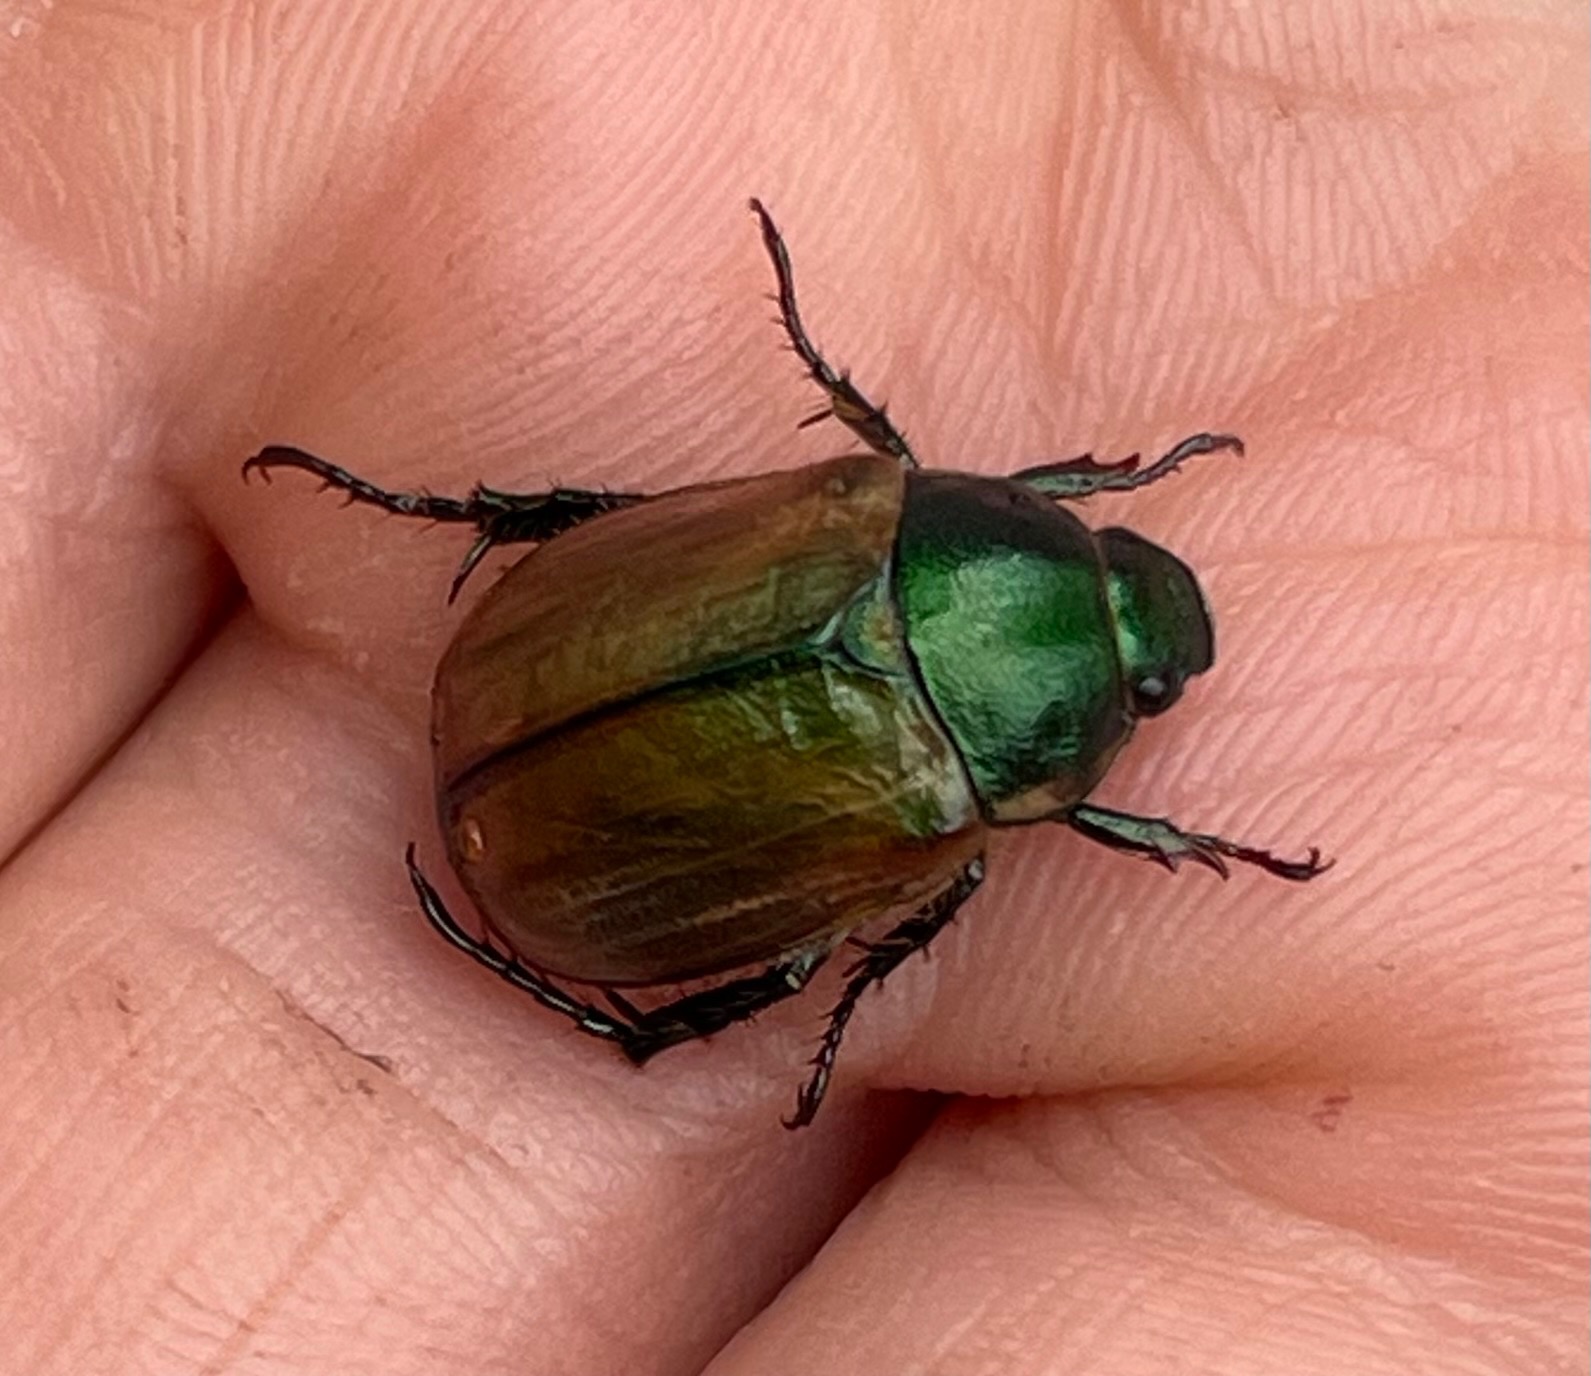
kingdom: Animalia
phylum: Arthropoda
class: Insecta
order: Coleoptera
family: Scarabaeidae
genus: Anomala
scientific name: Anomala dubia
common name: Klitoldenborre
